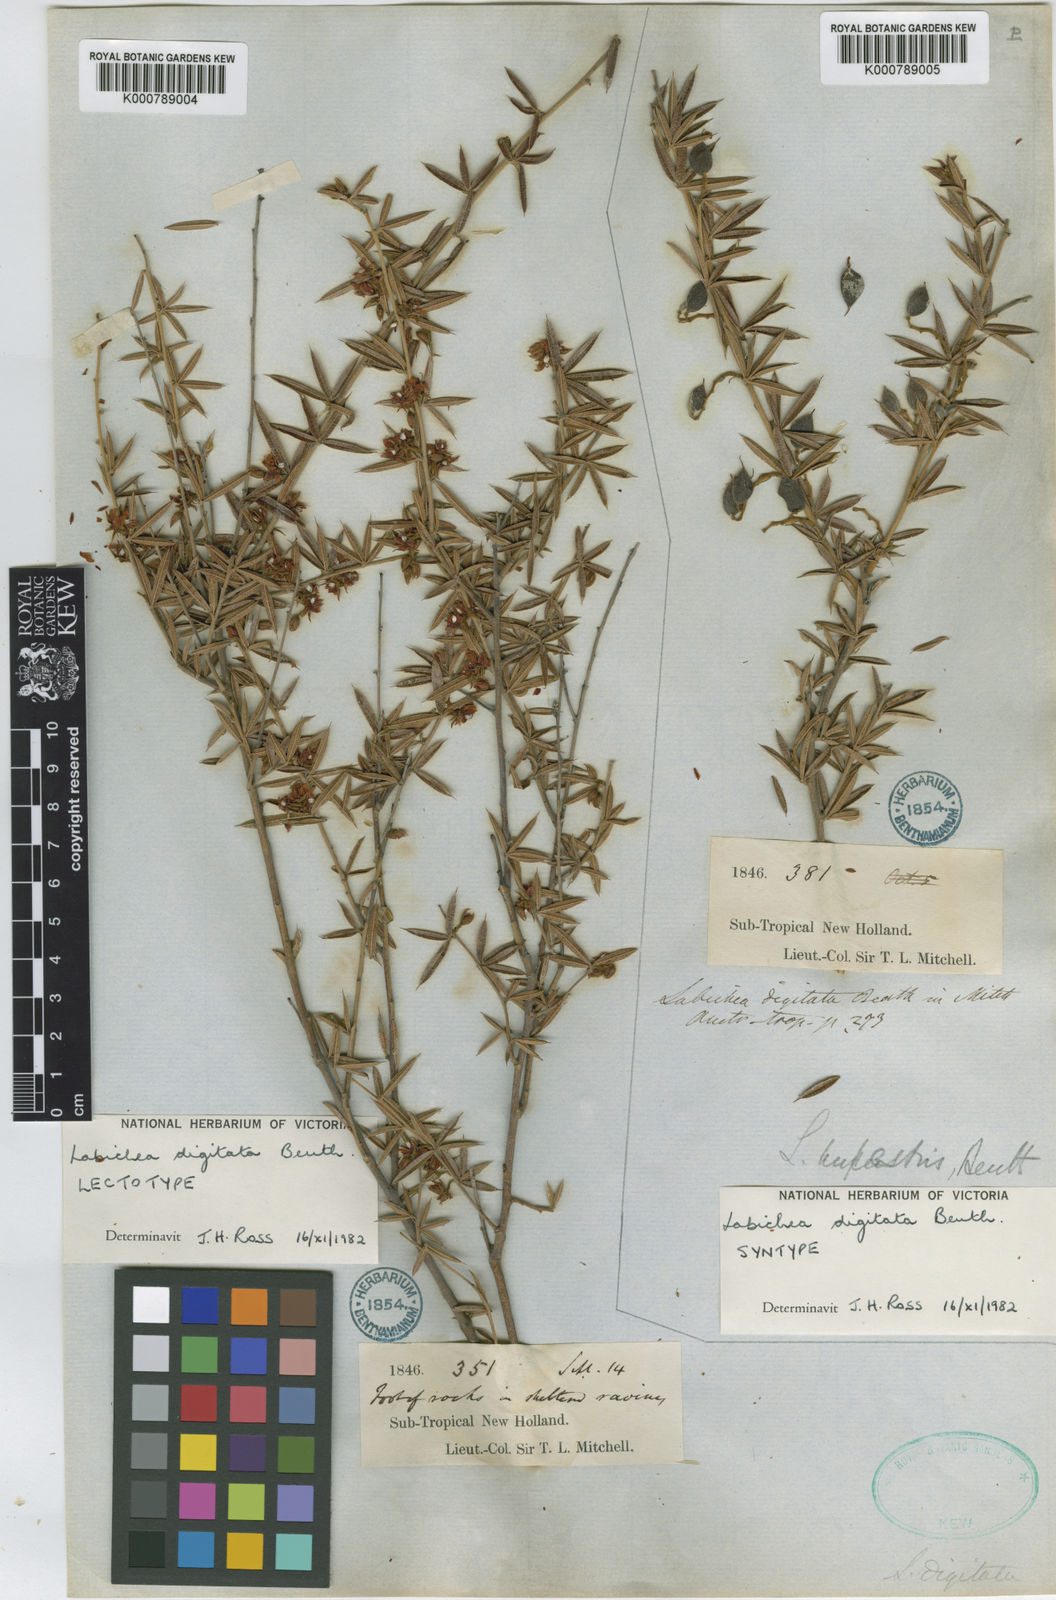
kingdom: Plantae
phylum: Tracheophyta
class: Magnoliopsida
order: Fabales
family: Fabaceae
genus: Labichea
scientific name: Labichea digitata
